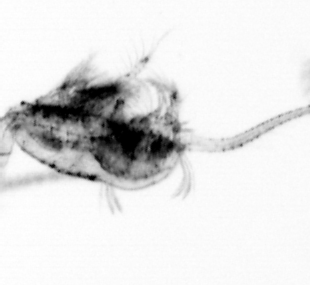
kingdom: Animalia
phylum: Arthropoda
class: Malacostraca
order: Decapoda
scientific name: Decapoda
